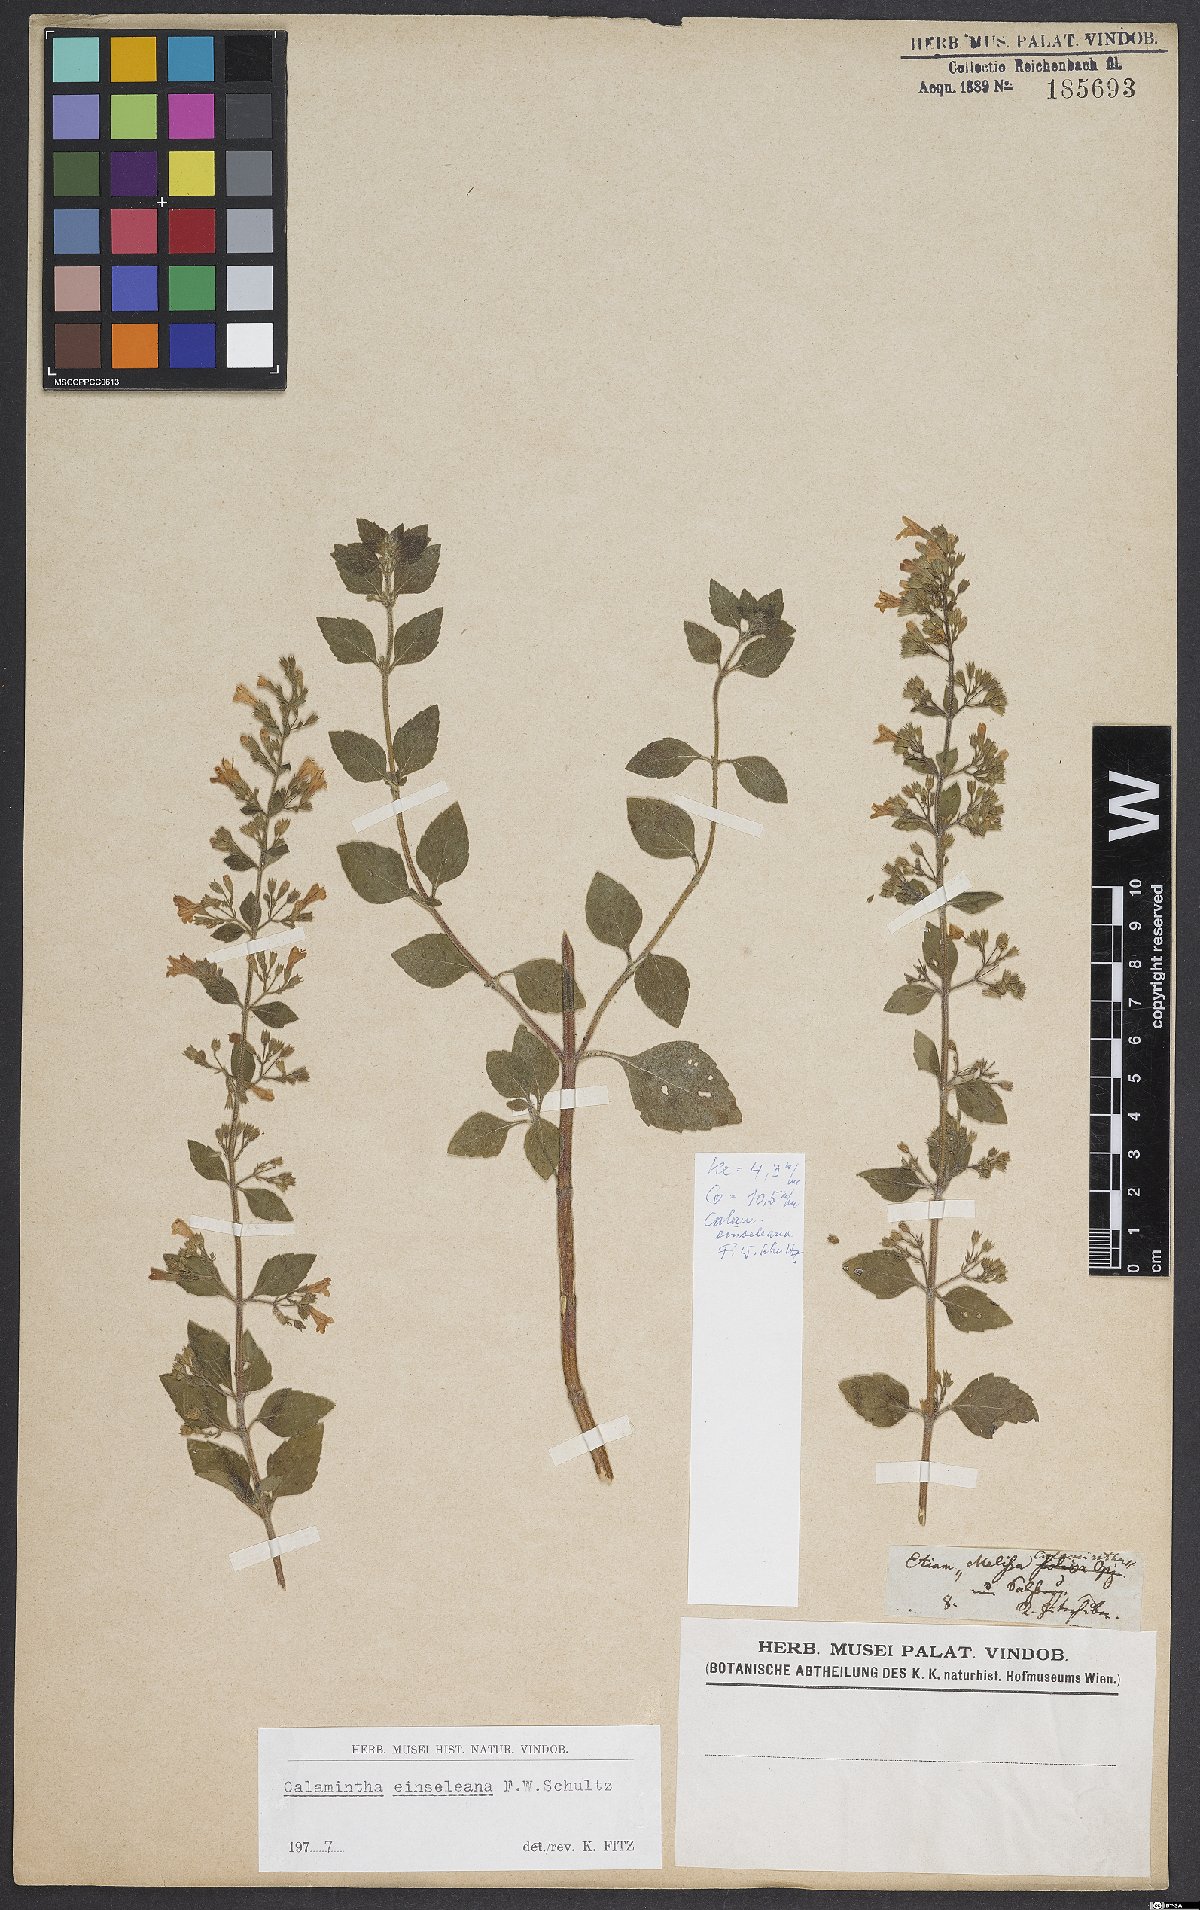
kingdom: Plantae
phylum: Tracheophyta
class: Magnoliopsida
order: Lamiales
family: Lamiaceae
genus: Clinopodium
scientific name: Clinopodium nepeta
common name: Lesser calamint
